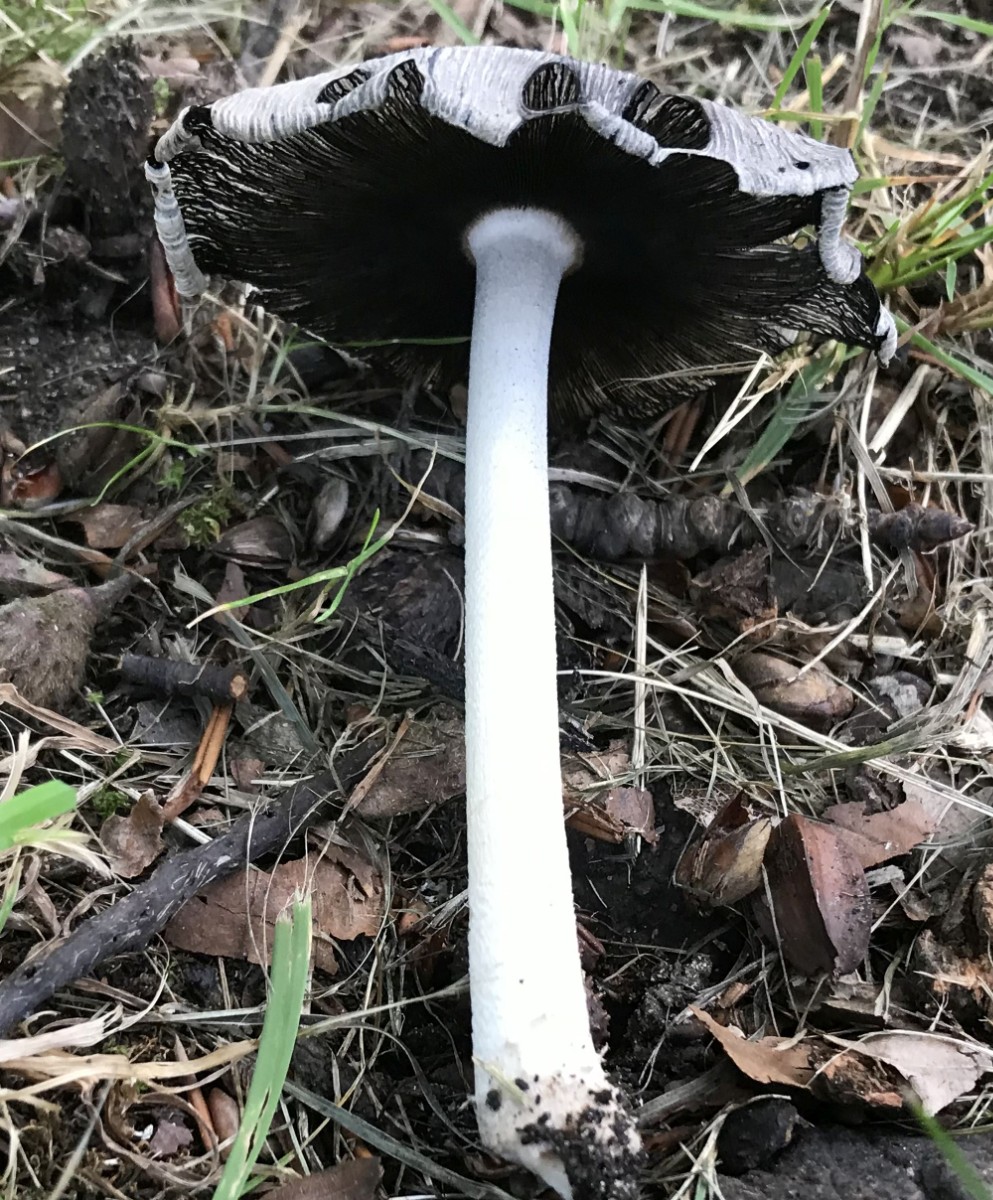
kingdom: Fungi
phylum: Basidiomycota
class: Agaricomycetes
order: Agaricales
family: Psathyrellaceae
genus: Coprinopsis
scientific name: Coprinopsis insignis
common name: stor blækhat
